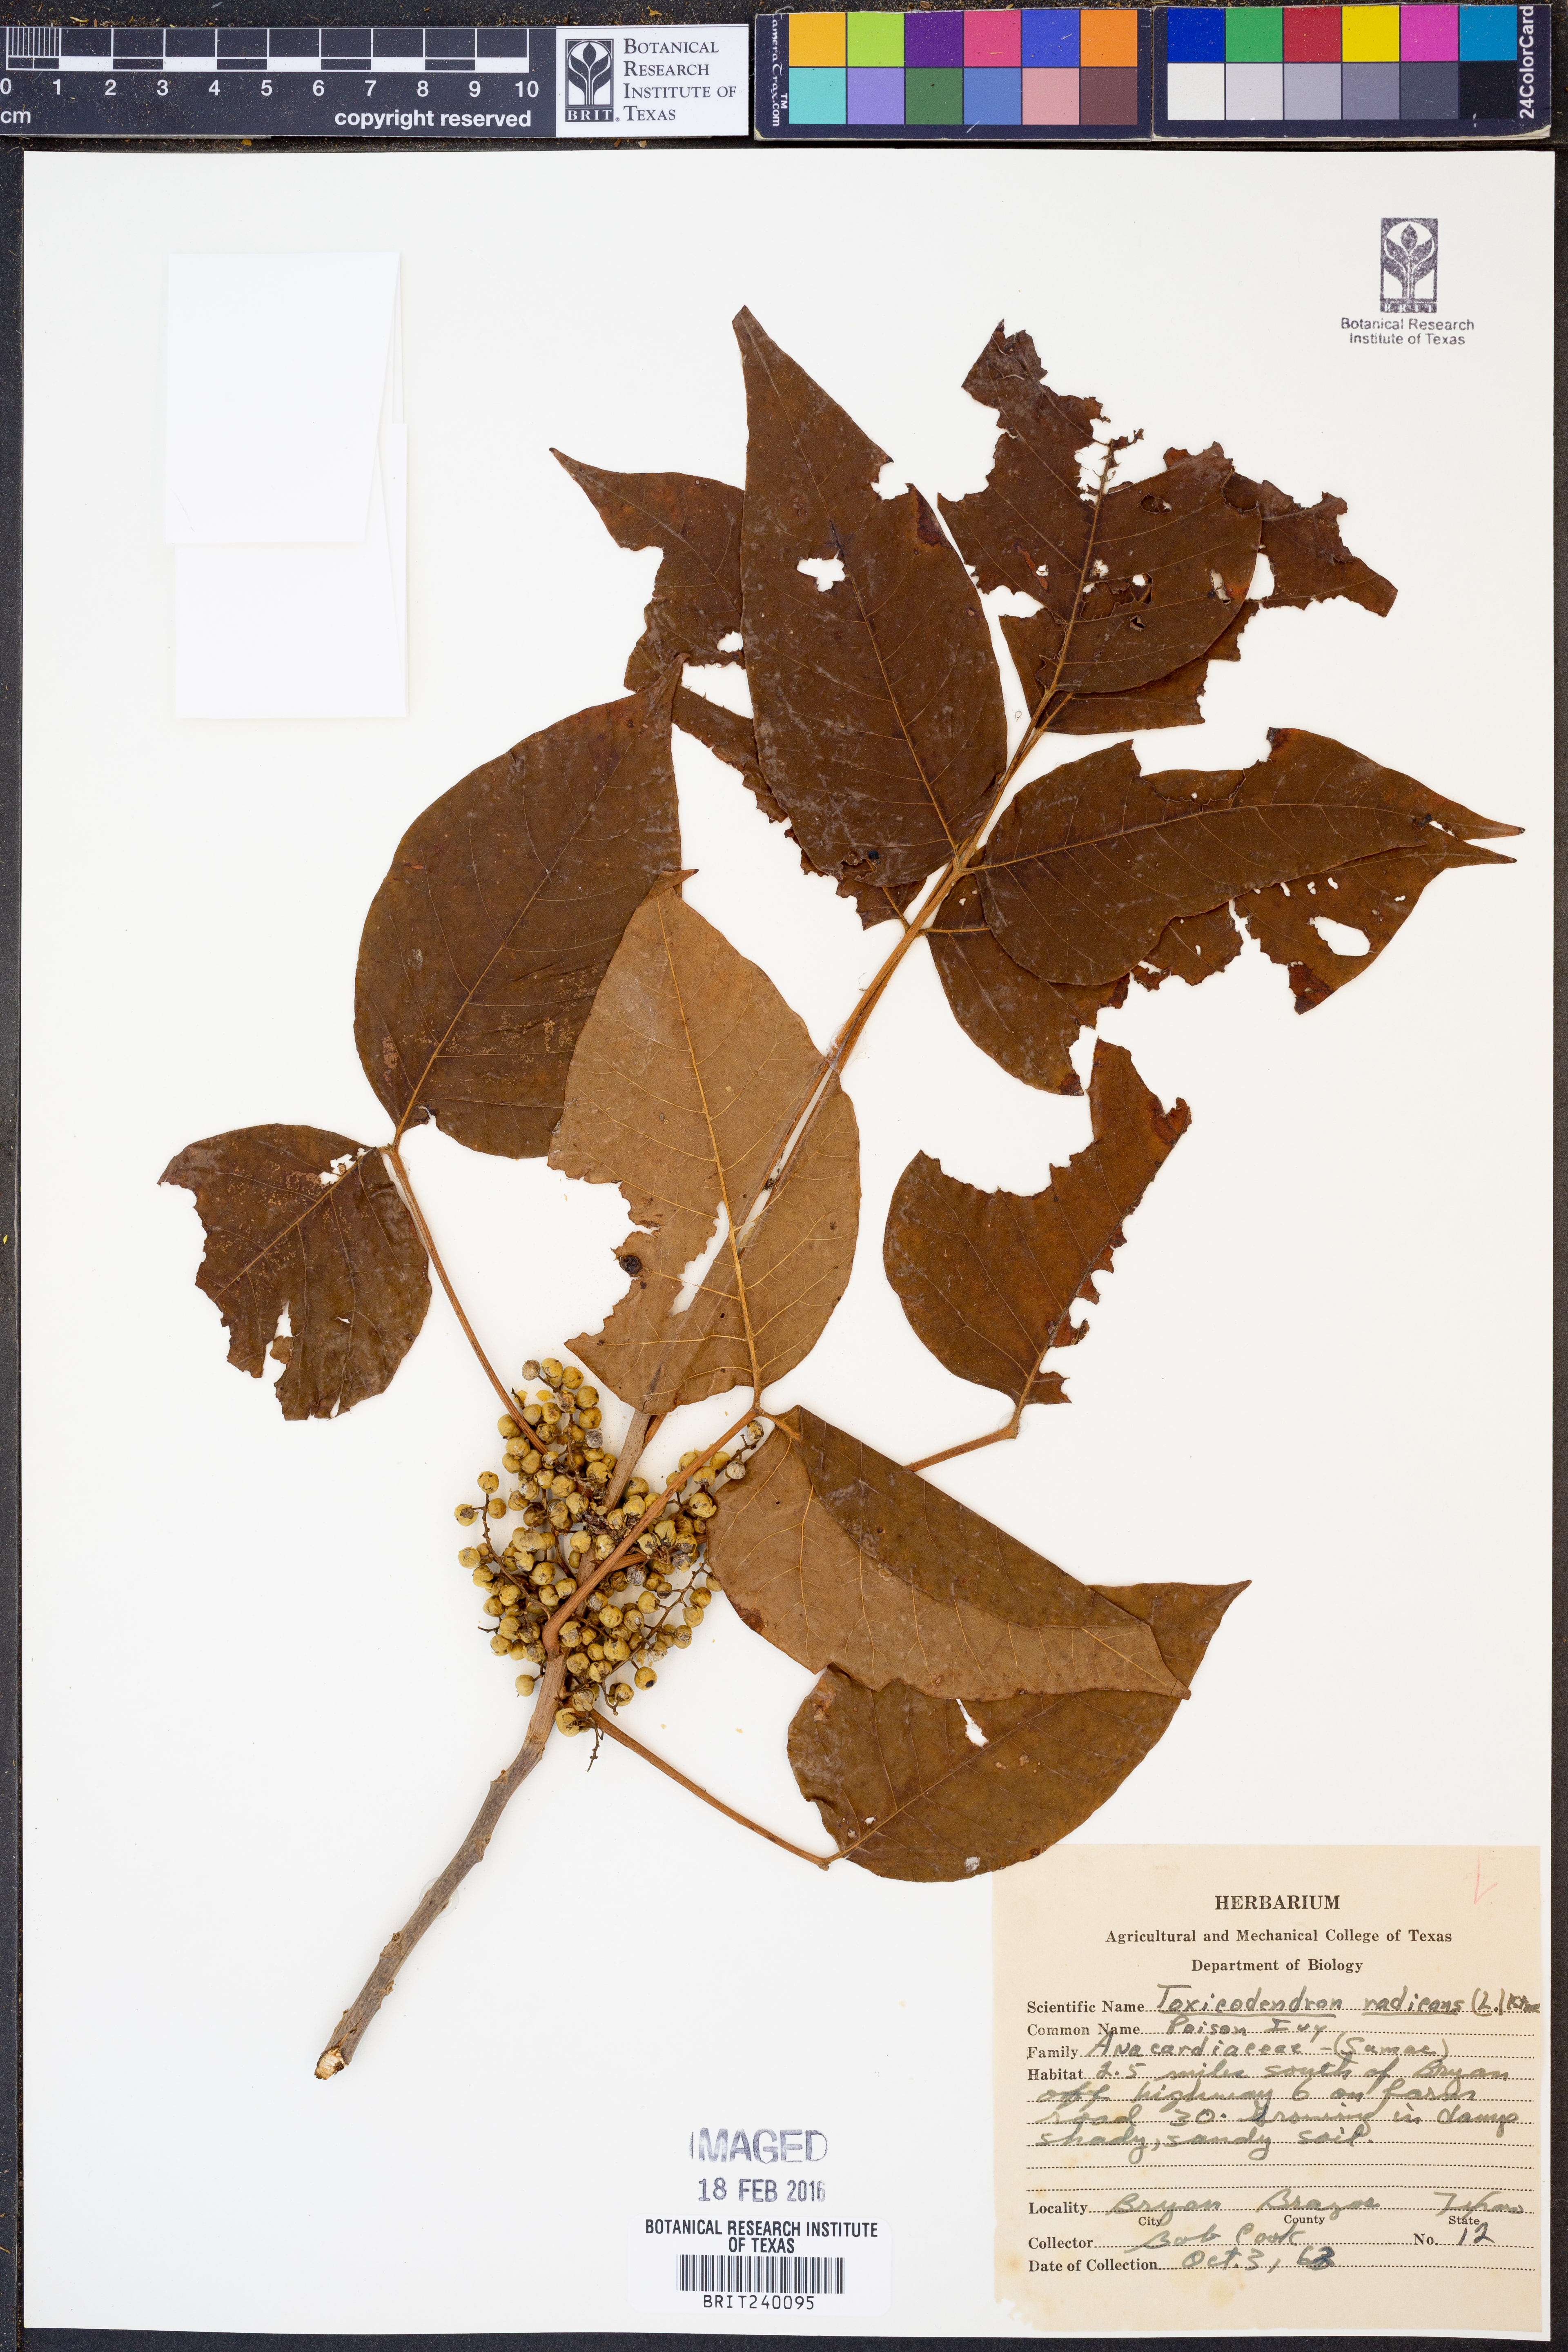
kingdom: Plantae
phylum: Tracheophyta
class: Magnoliopsida
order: Sapindales
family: Anacardiaceae
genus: Toxicodendron
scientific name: Toxicodendron radicans
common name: Poison ivy
